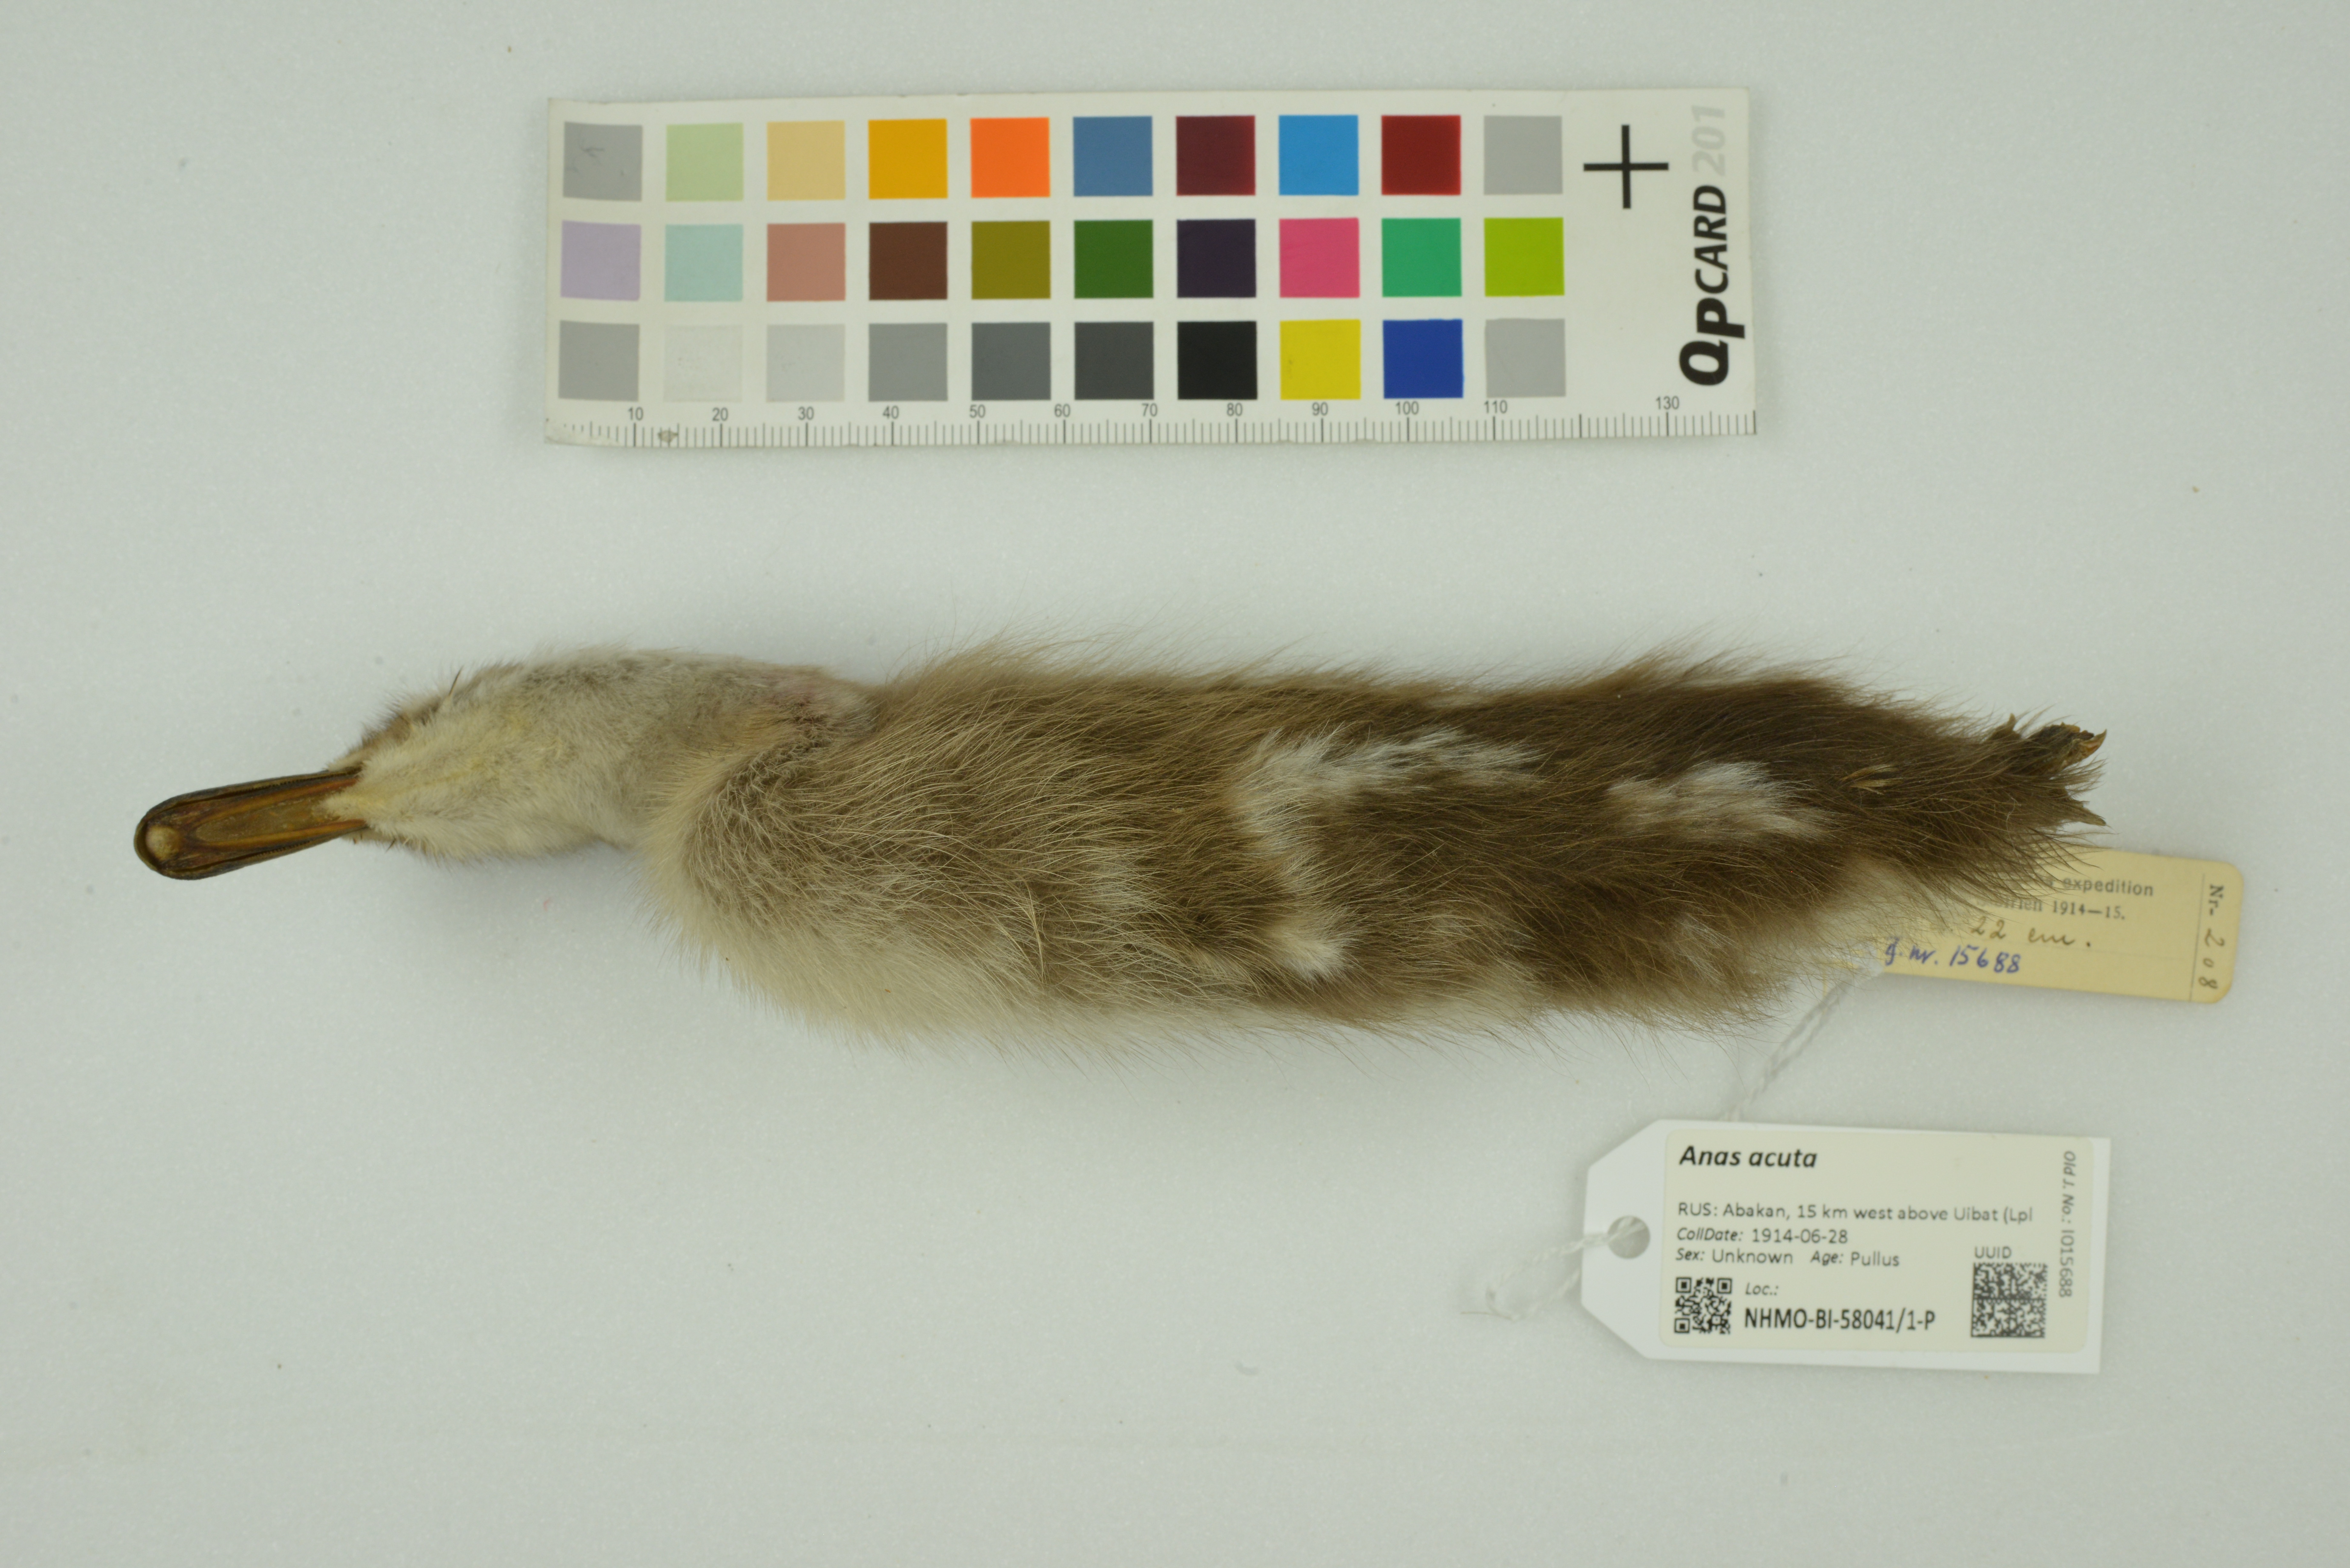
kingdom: Animalia
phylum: Chordata
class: Aves
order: Anseriformes
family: Anatidae
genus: Anas
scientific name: Anas acuta
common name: Northern pintail
